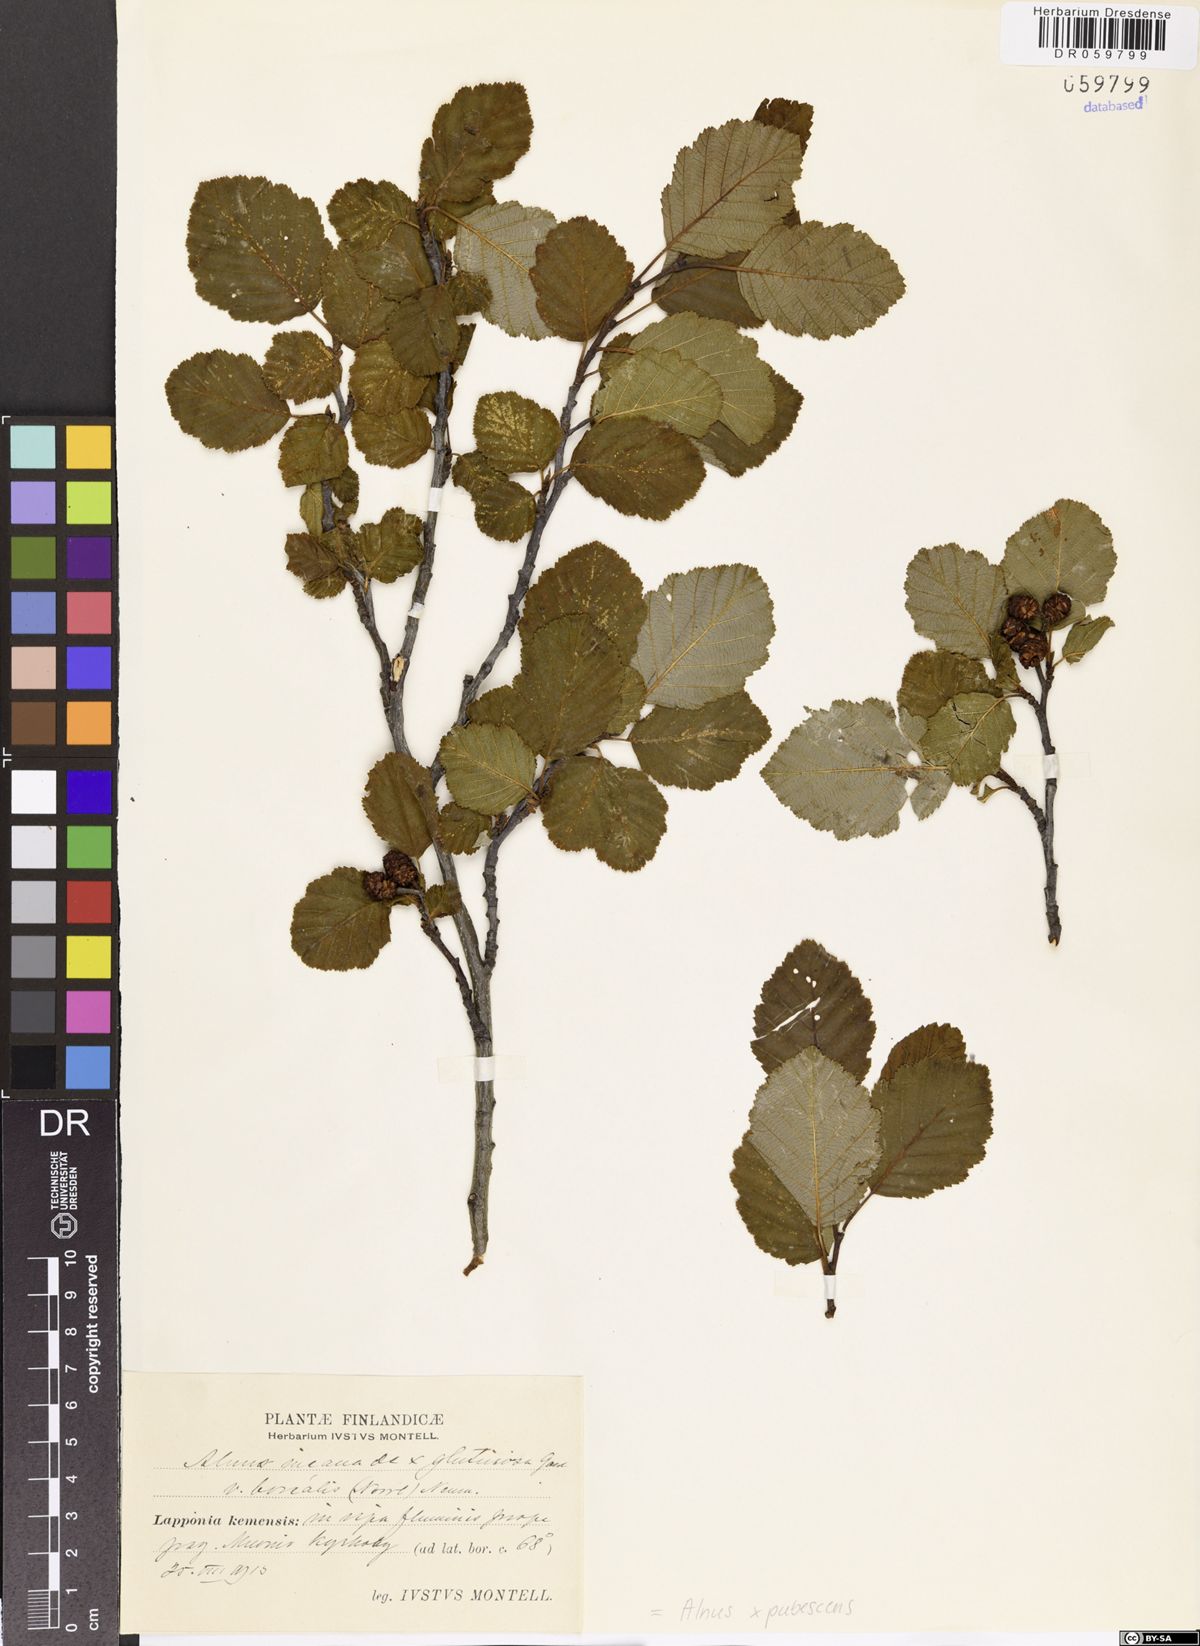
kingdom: Plantae
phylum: Tracheophyta
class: Magnoliopsida
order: Fagales
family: Betulaceae
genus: Alnus
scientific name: Alnus pubescens
